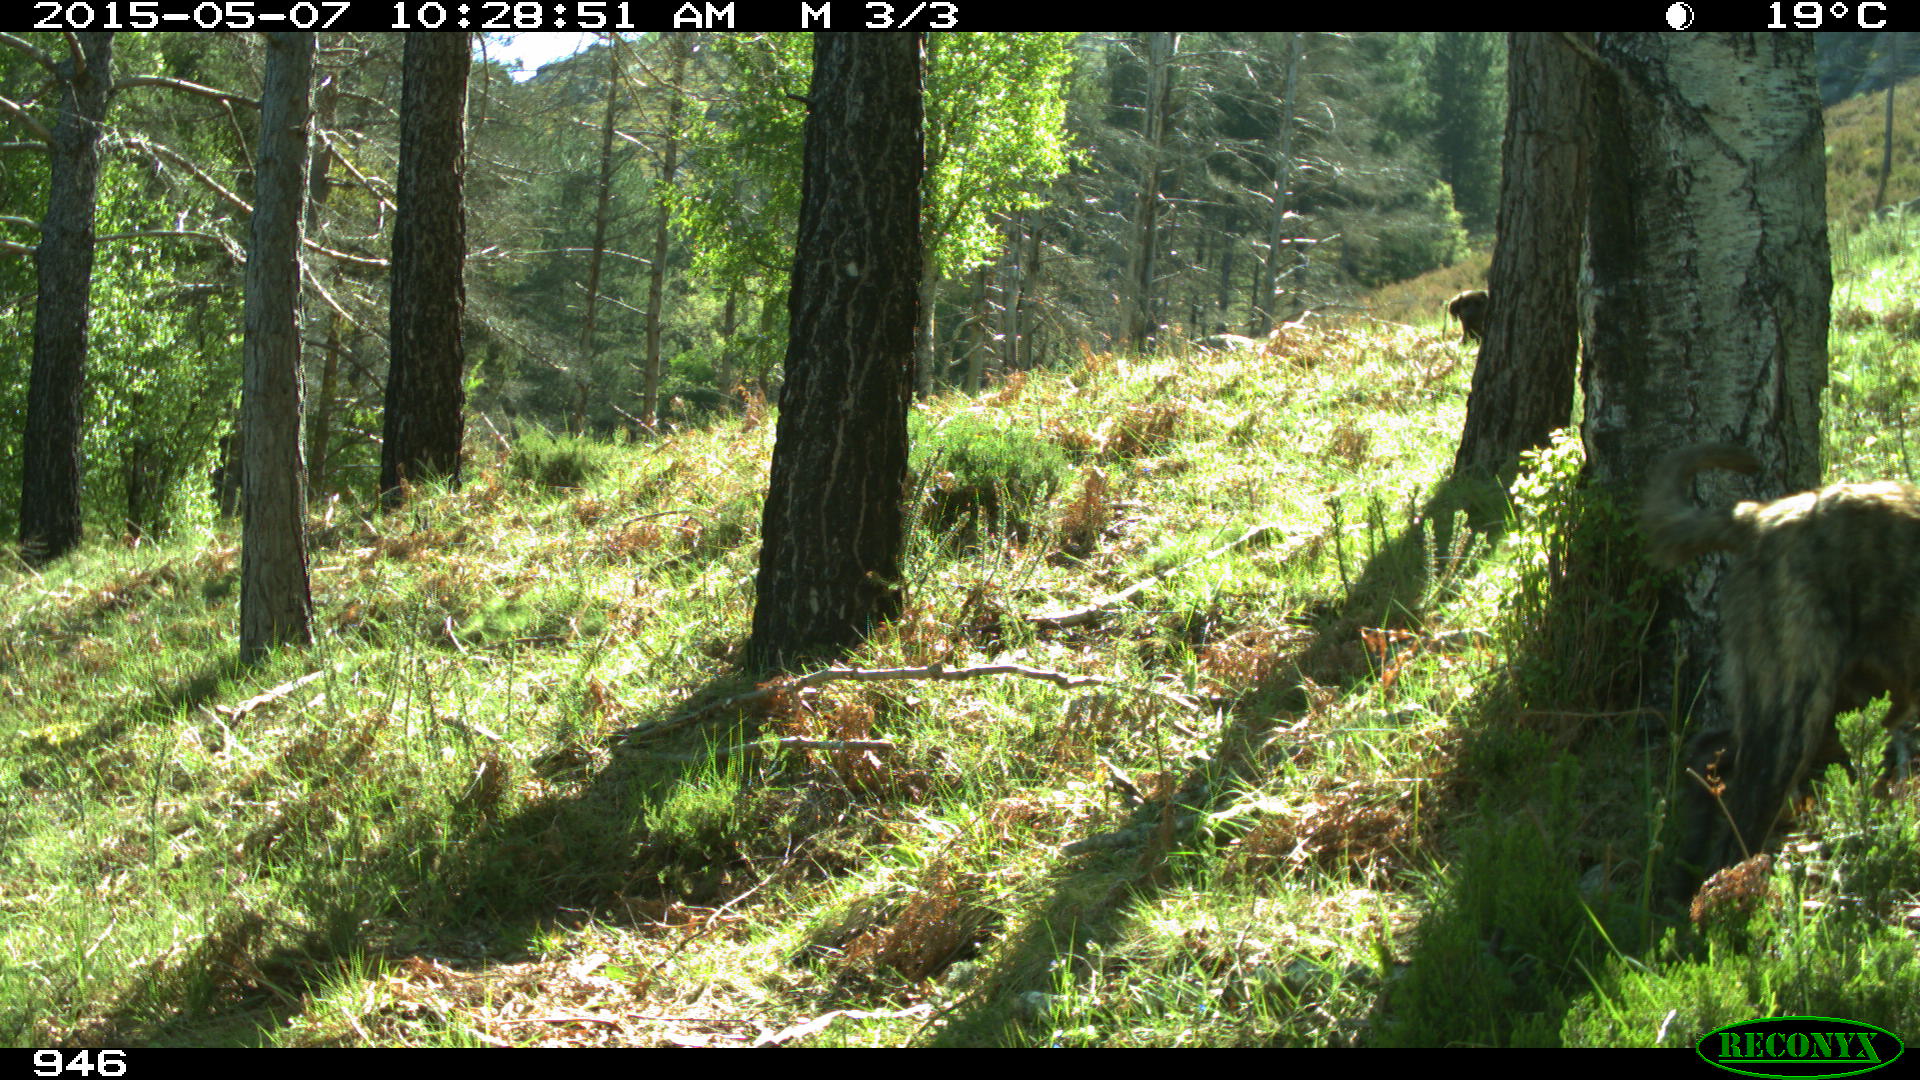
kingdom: Animalia
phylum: Chordata
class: Mammalia
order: Carnivora
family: Canidae
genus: Canis
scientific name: Canis lupus
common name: Gray wolf
